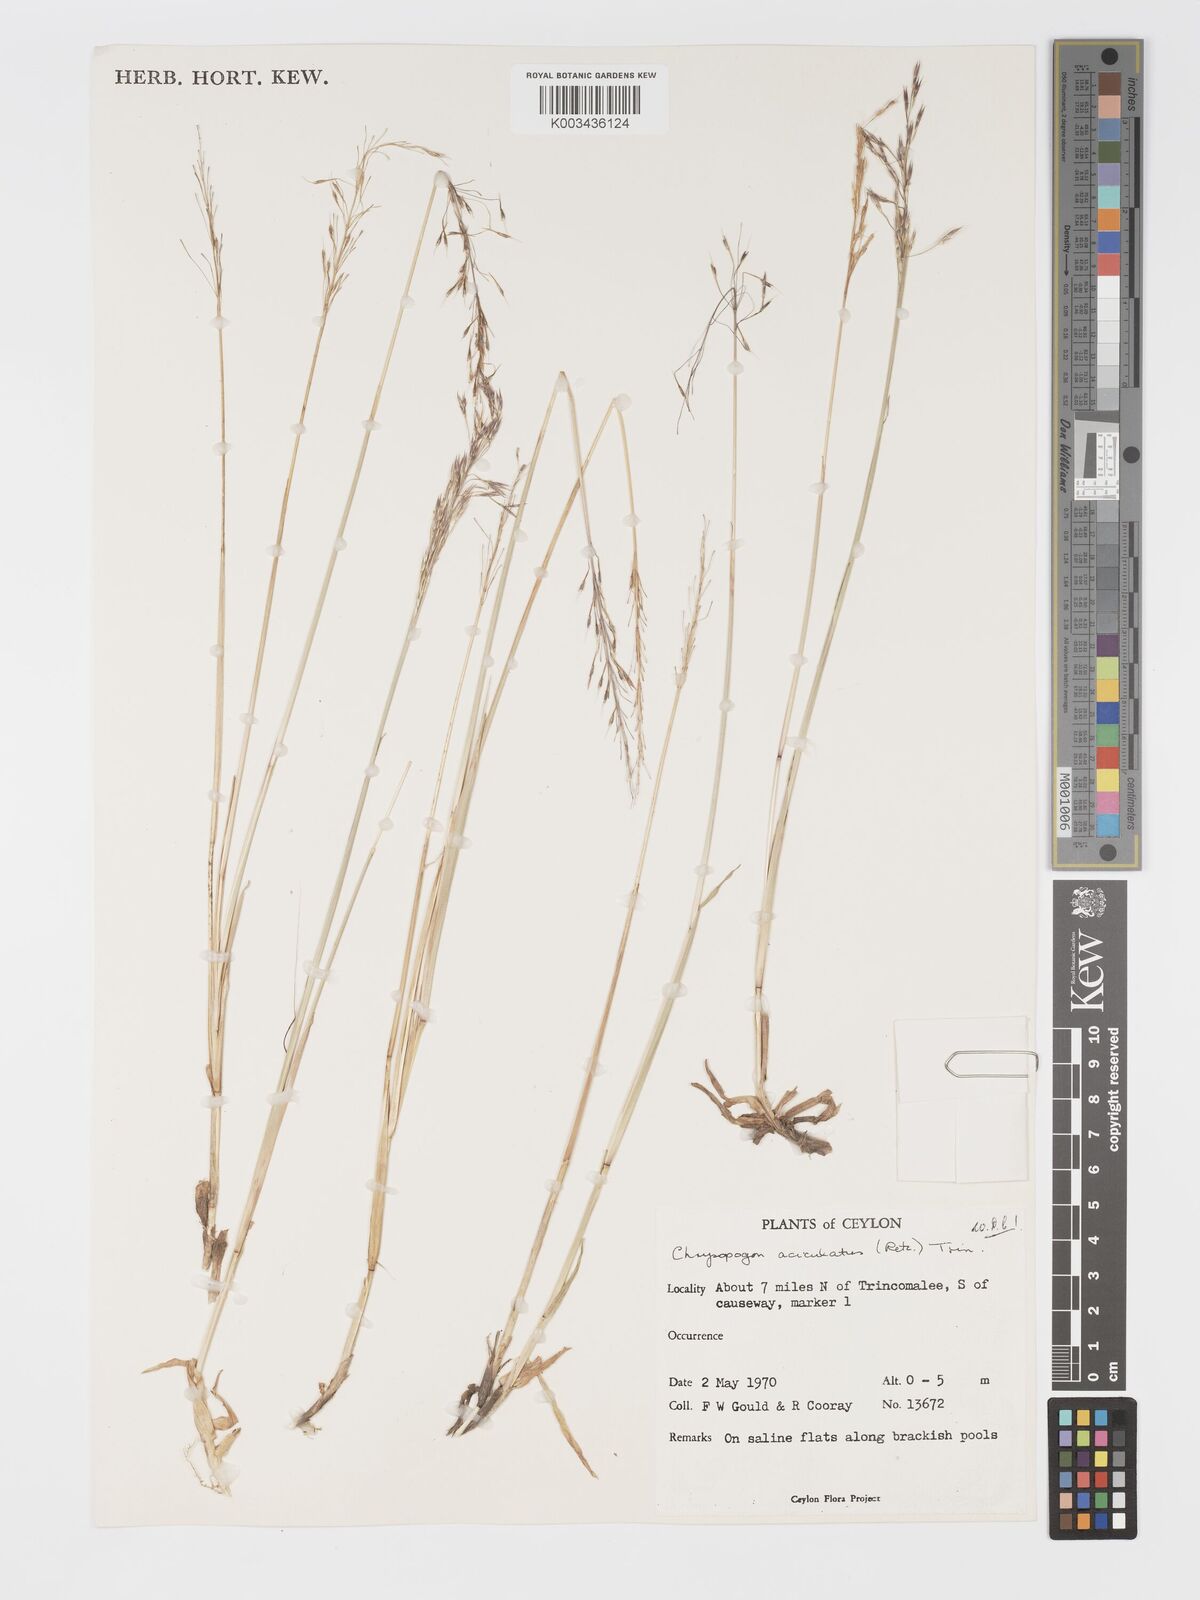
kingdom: Plantae
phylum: Tracheophyta
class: Liliopsida
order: Poales
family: Poaceae
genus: Chrysopogon
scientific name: Chrysopogon aciculatus
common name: Pilipiliula
